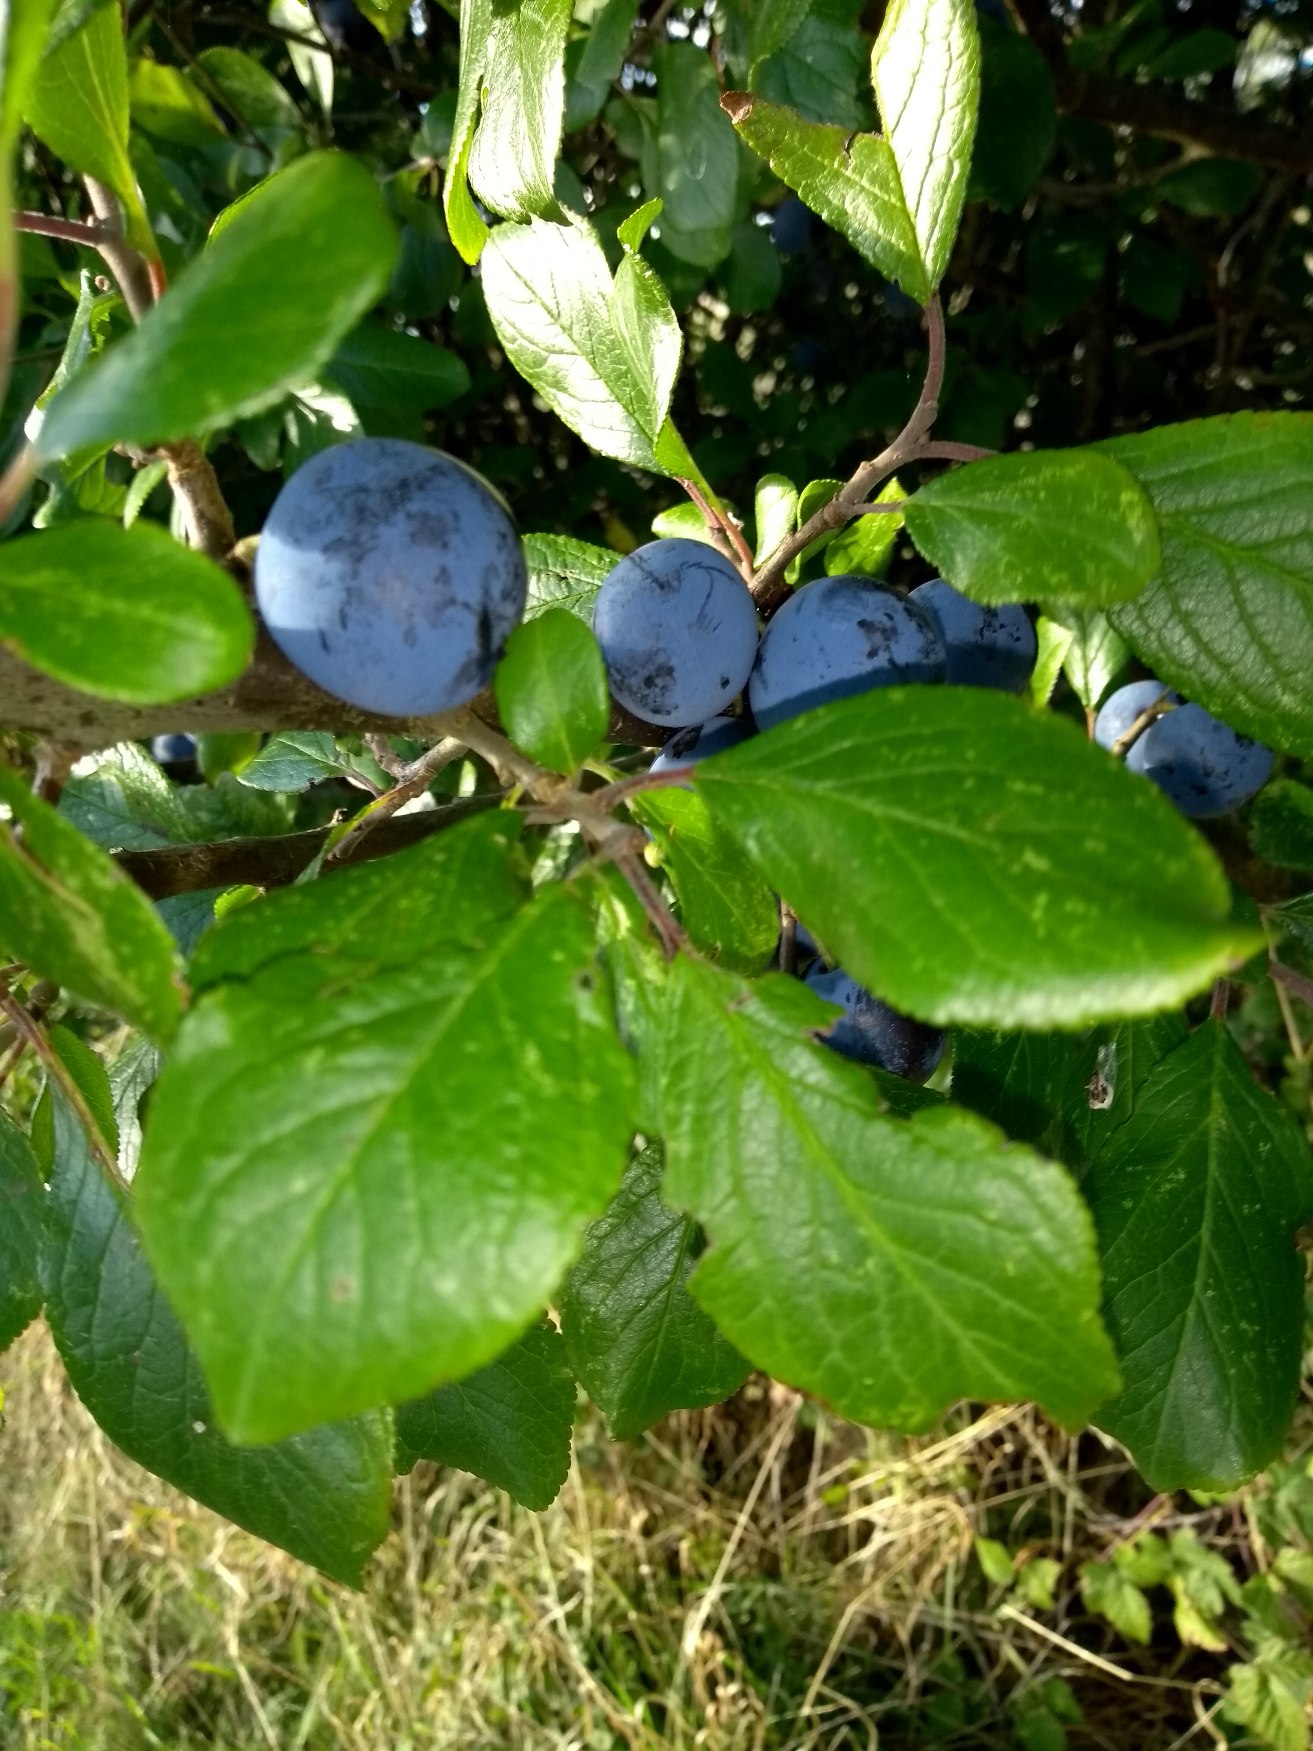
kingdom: Plantae
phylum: Tracheophyta
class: Magnoliopsida
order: Rosales
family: Rosaceae
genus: Prunus
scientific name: Prunus domestica
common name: Kræge
